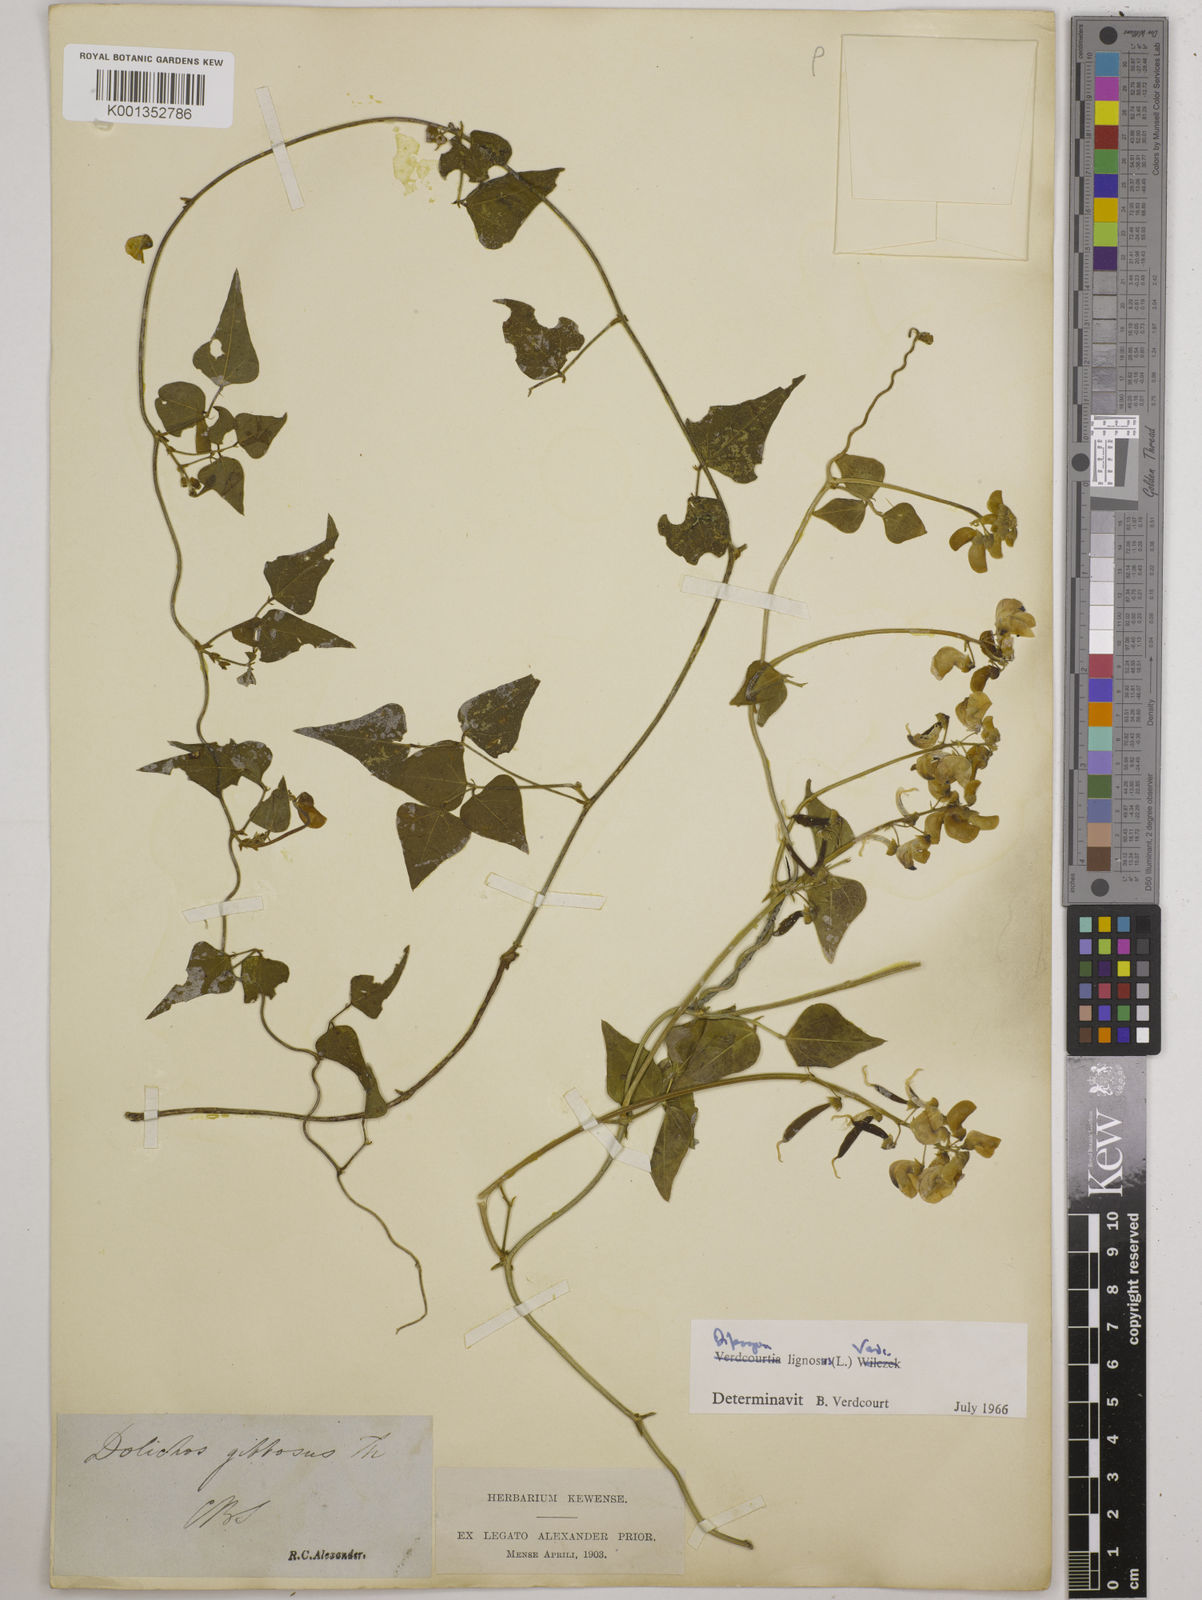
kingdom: Plantae
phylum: Tracheophyta
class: Magnoliopsida
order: Fabales
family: Fabaceae
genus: Dipogon
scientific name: Dipogon lignosus
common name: Okie bean
